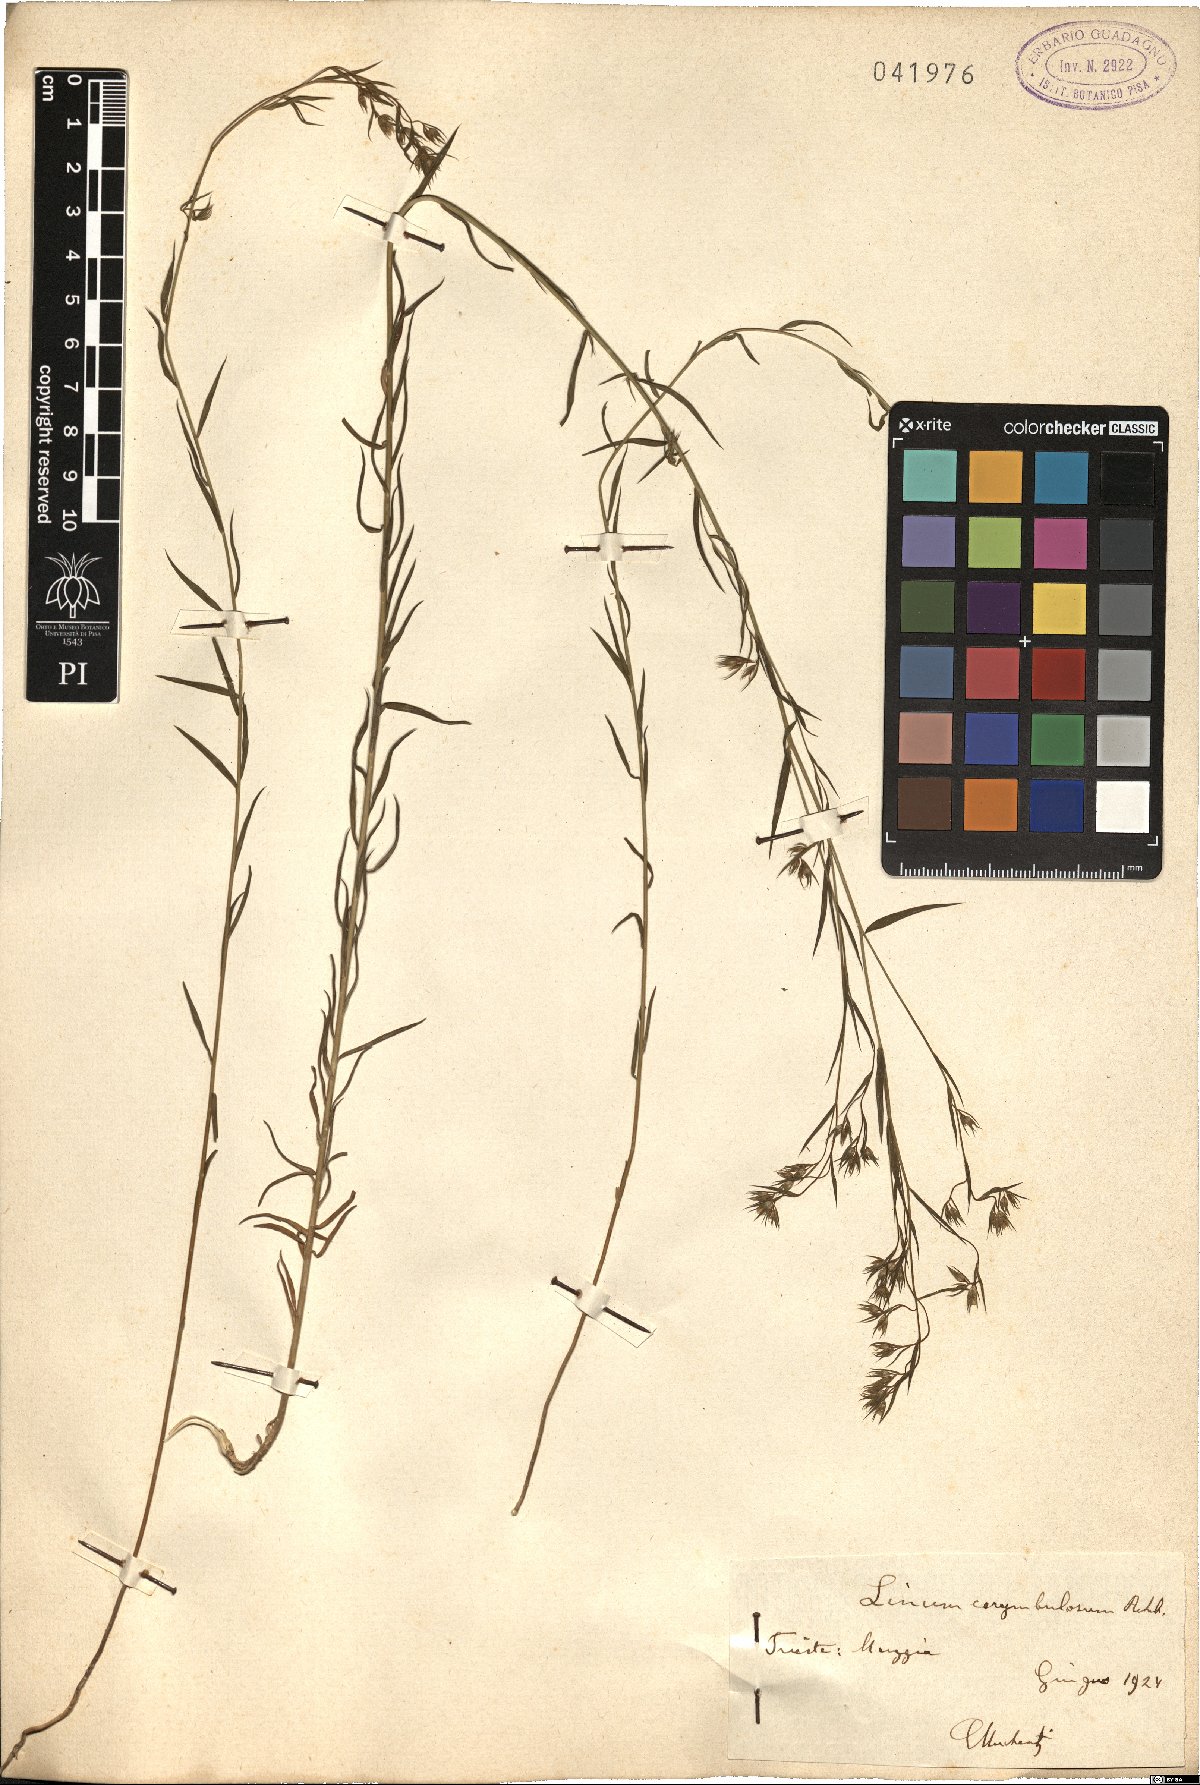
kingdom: Plantae
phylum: Tracheophyta
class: Magnoliopsida
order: Malpighiales
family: Linaceae
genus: Linum
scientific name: Linum corymbulosum
